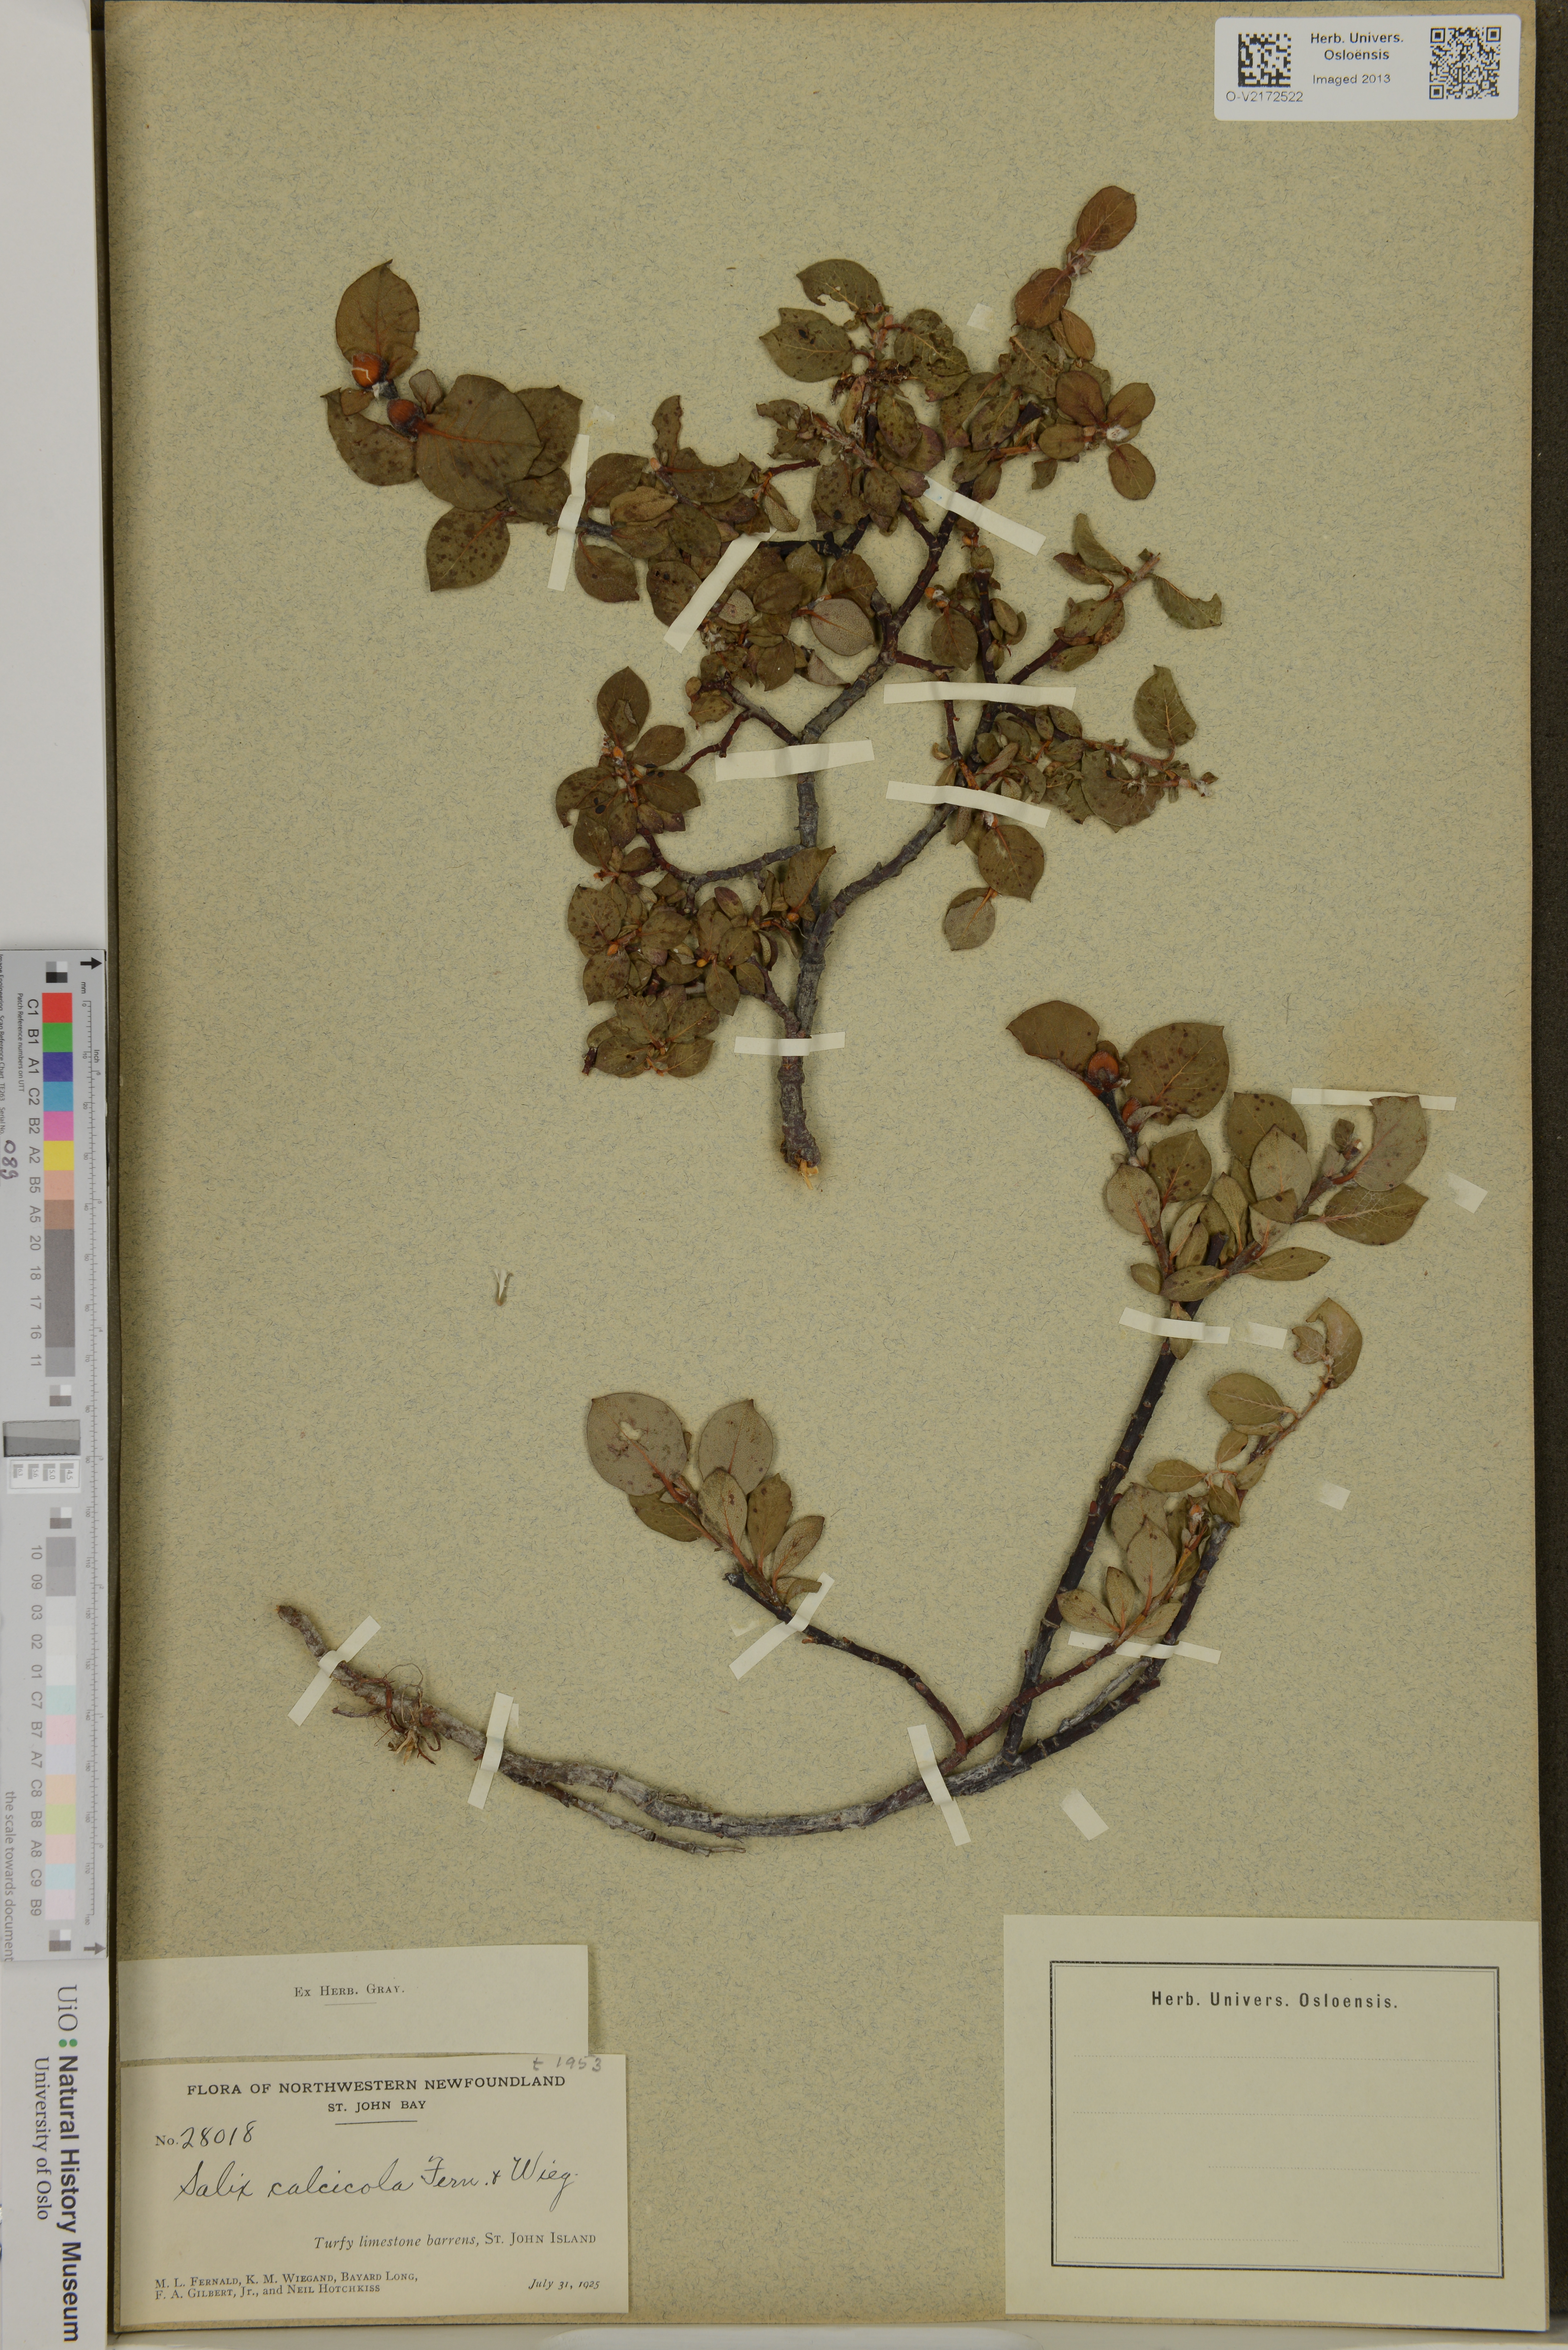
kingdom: Plantae
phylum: Tracheophyta
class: Magnoliopsida
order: Malpighiales
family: Salicaceae
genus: Salix
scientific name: Salix calcicola
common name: Calcareous willow
